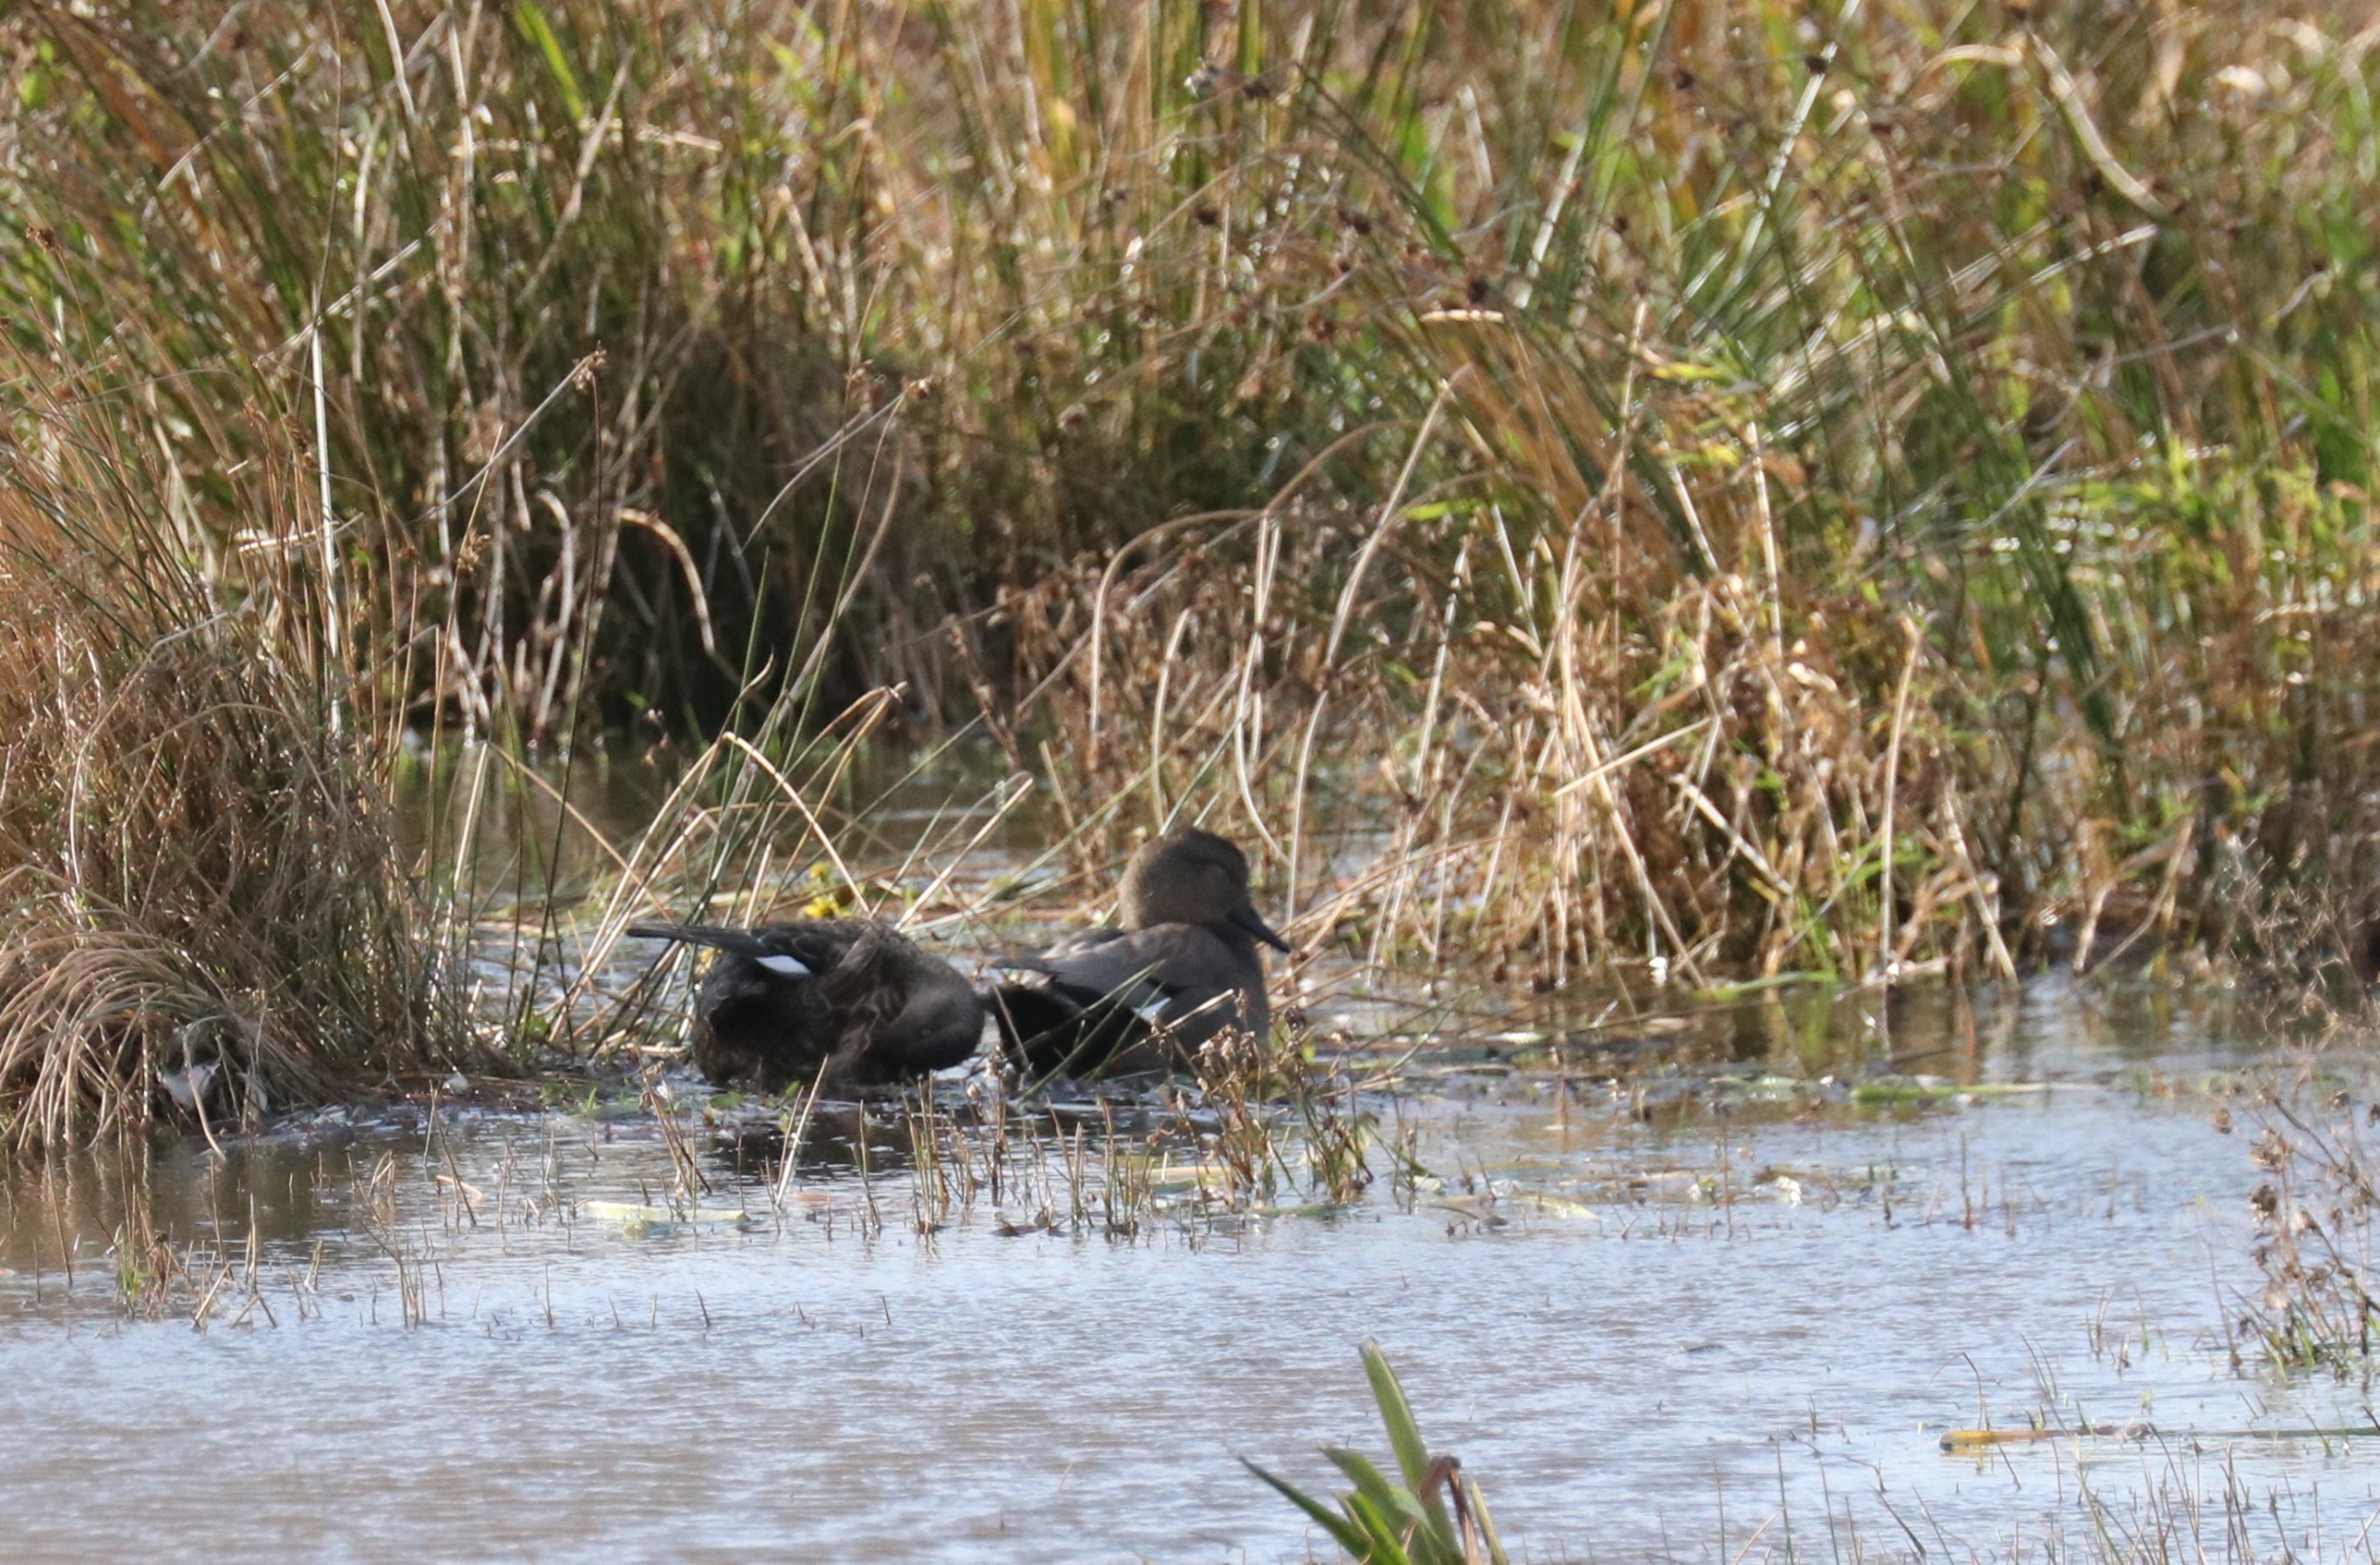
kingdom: Animalia
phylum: Chordata
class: Aves
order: Anseriformes
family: Anatidae
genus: Mareca
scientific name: Mareca strepera
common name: Knarand
